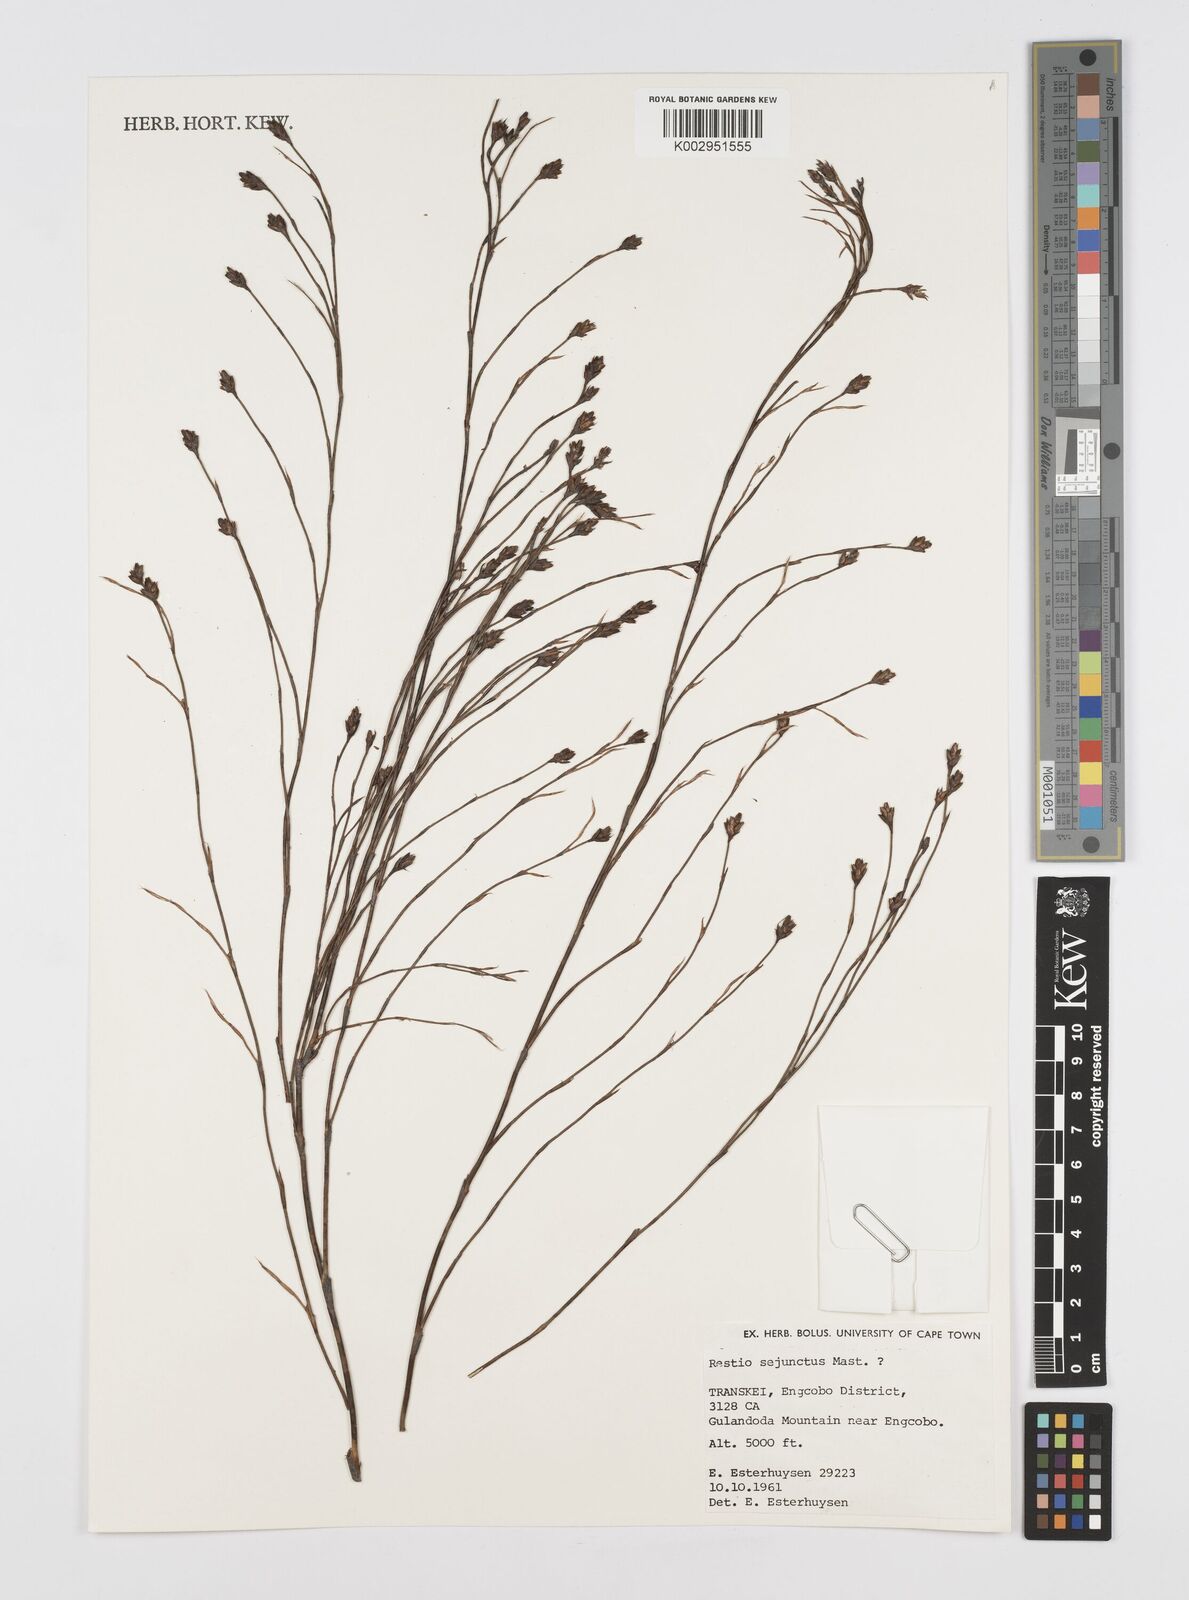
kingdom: Plantae
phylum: Tracheophyta
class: Liliopsida
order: Poales
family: Restionaceae
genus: Restio
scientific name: Restio sejunctus
